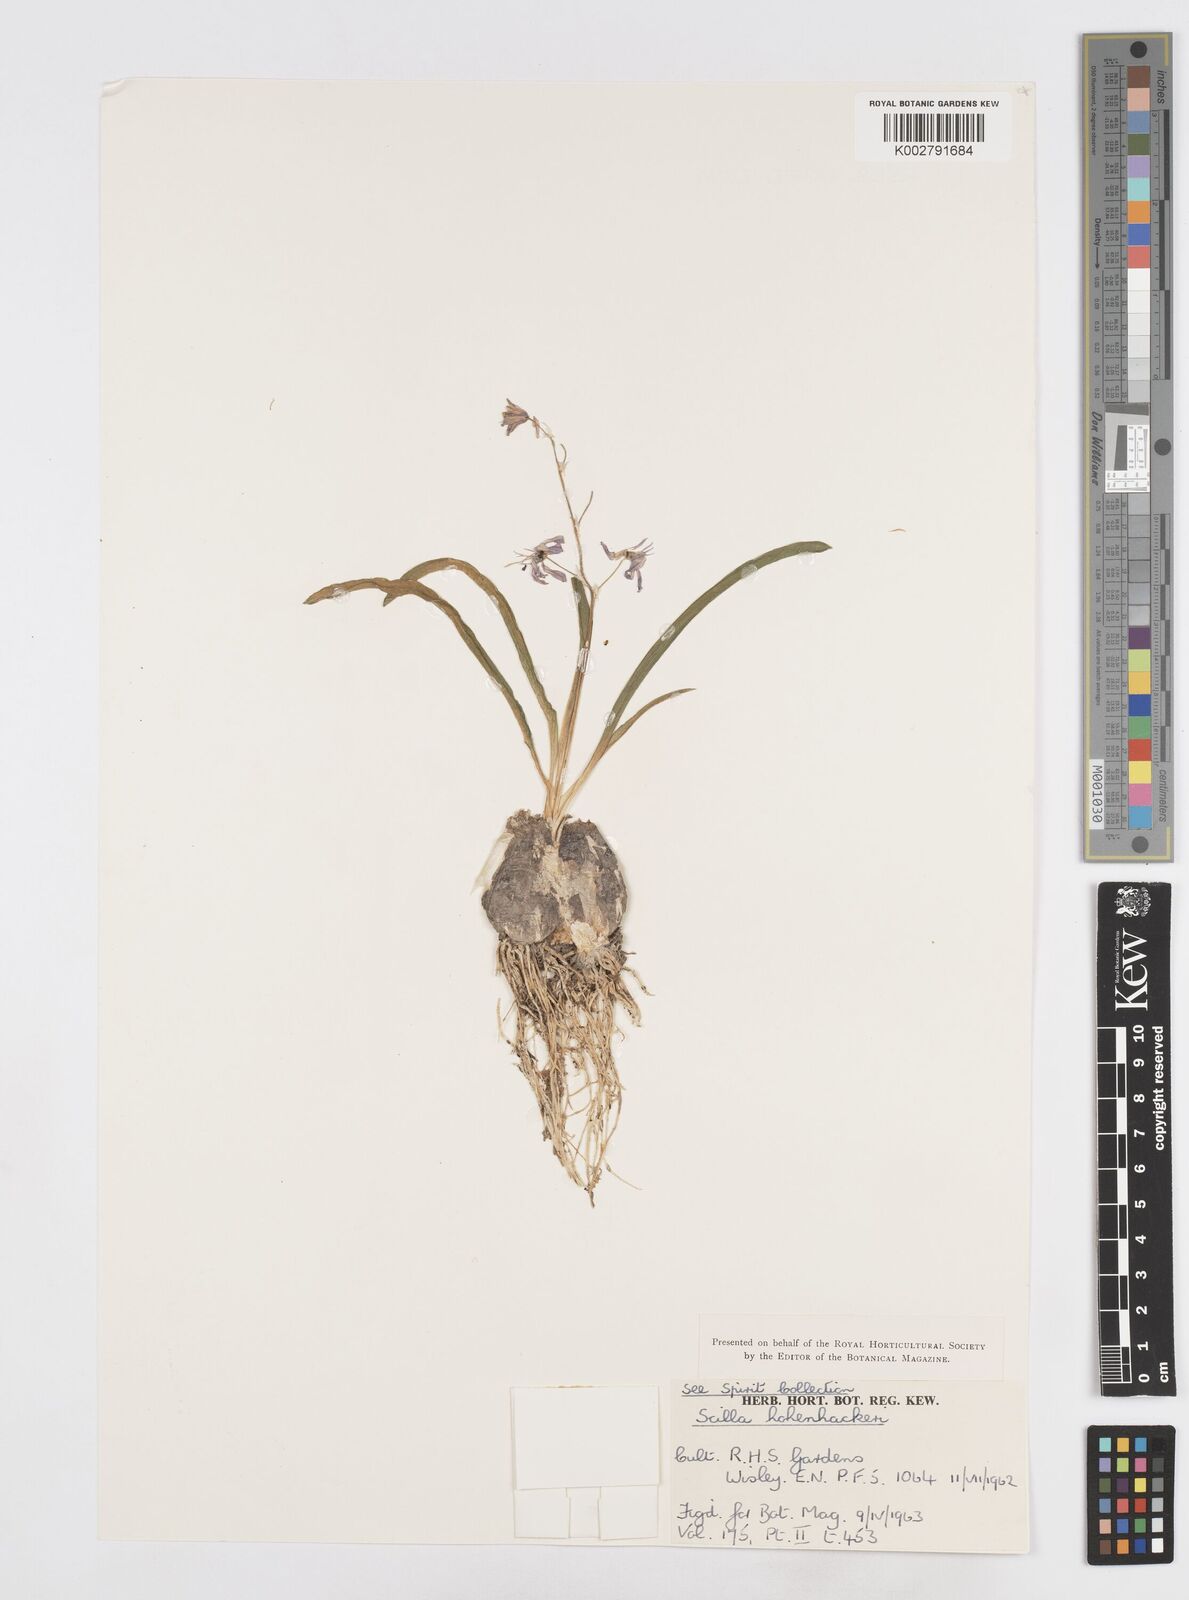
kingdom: Plantae
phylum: Tracheophyta
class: Liliopsida
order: Asparagales
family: Asparagaceae
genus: Scilla
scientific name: Scilla bifolia
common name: Alpine squill
